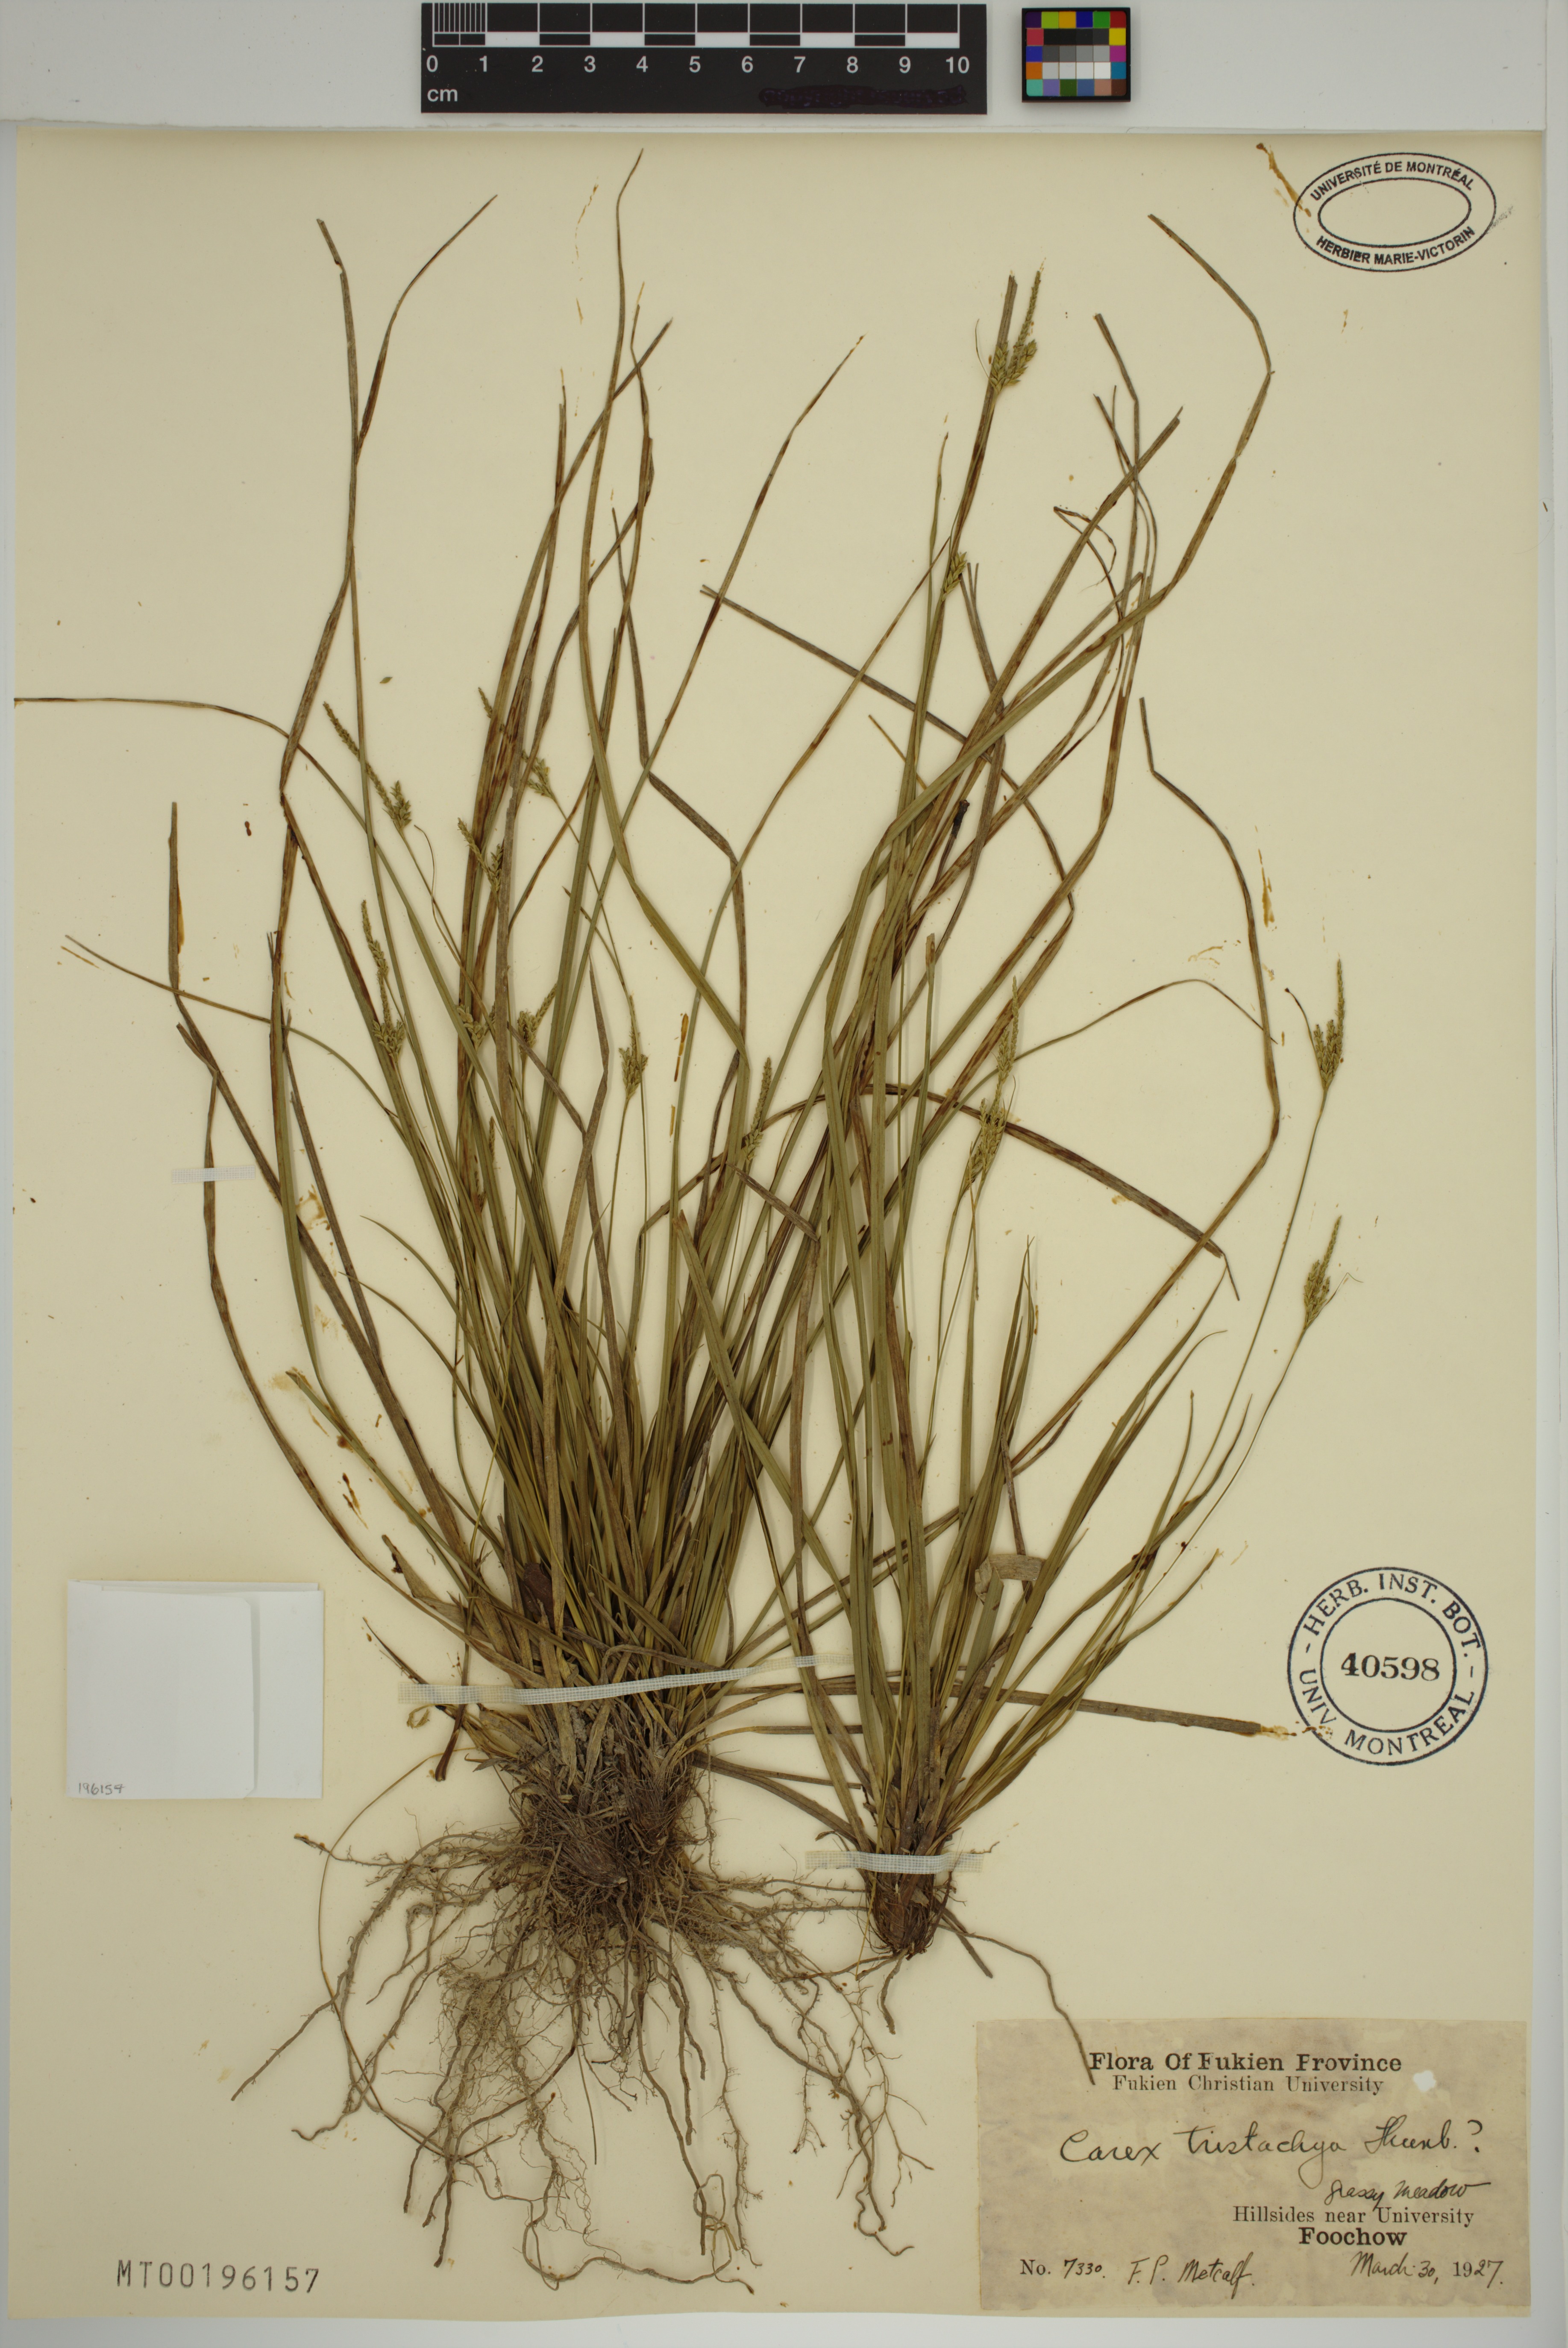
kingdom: Plantae
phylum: Tracheophyta
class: Liliopsida
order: Poales
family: Cyperaceae
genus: Carex
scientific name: Carex tristachya
